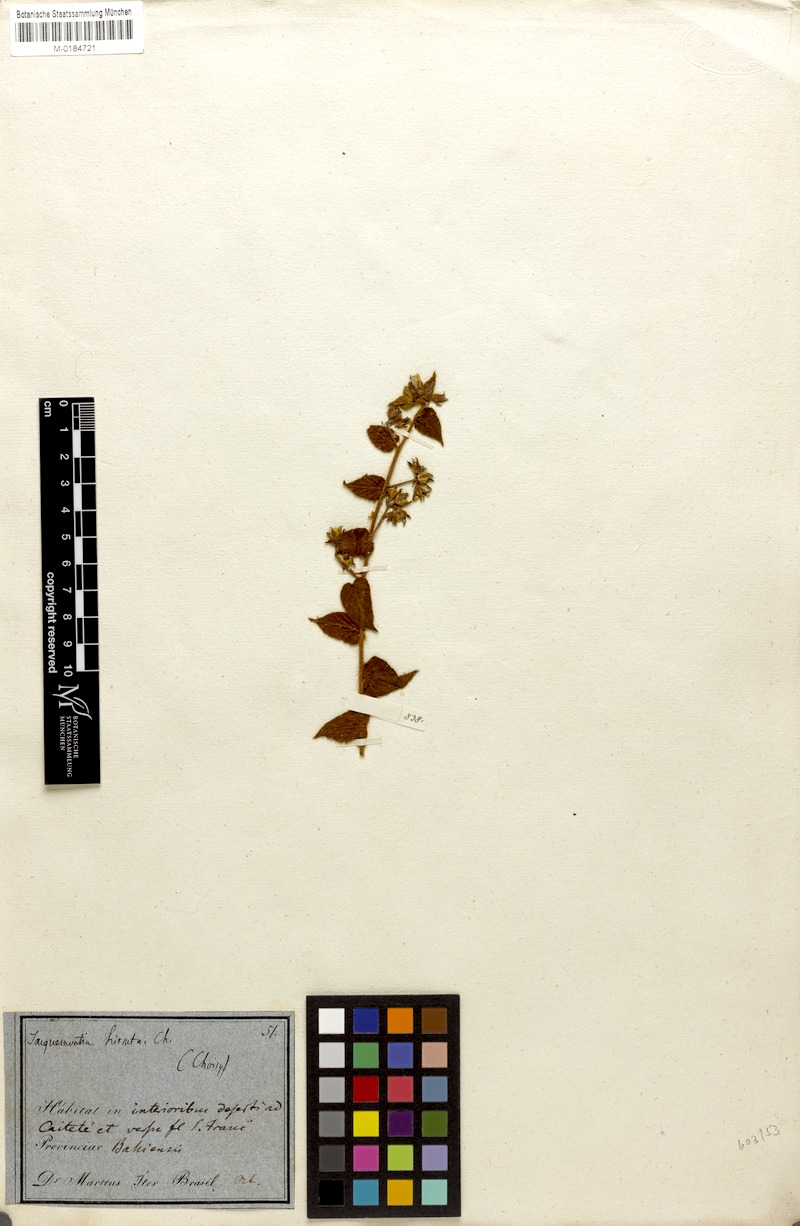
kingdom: Plantae
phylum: Tracheophyta
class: Magnoliopsida
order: Solanales
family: Convolvulaceae
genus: Jacquemontia
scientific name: Jacquemontia sphaerostigma
